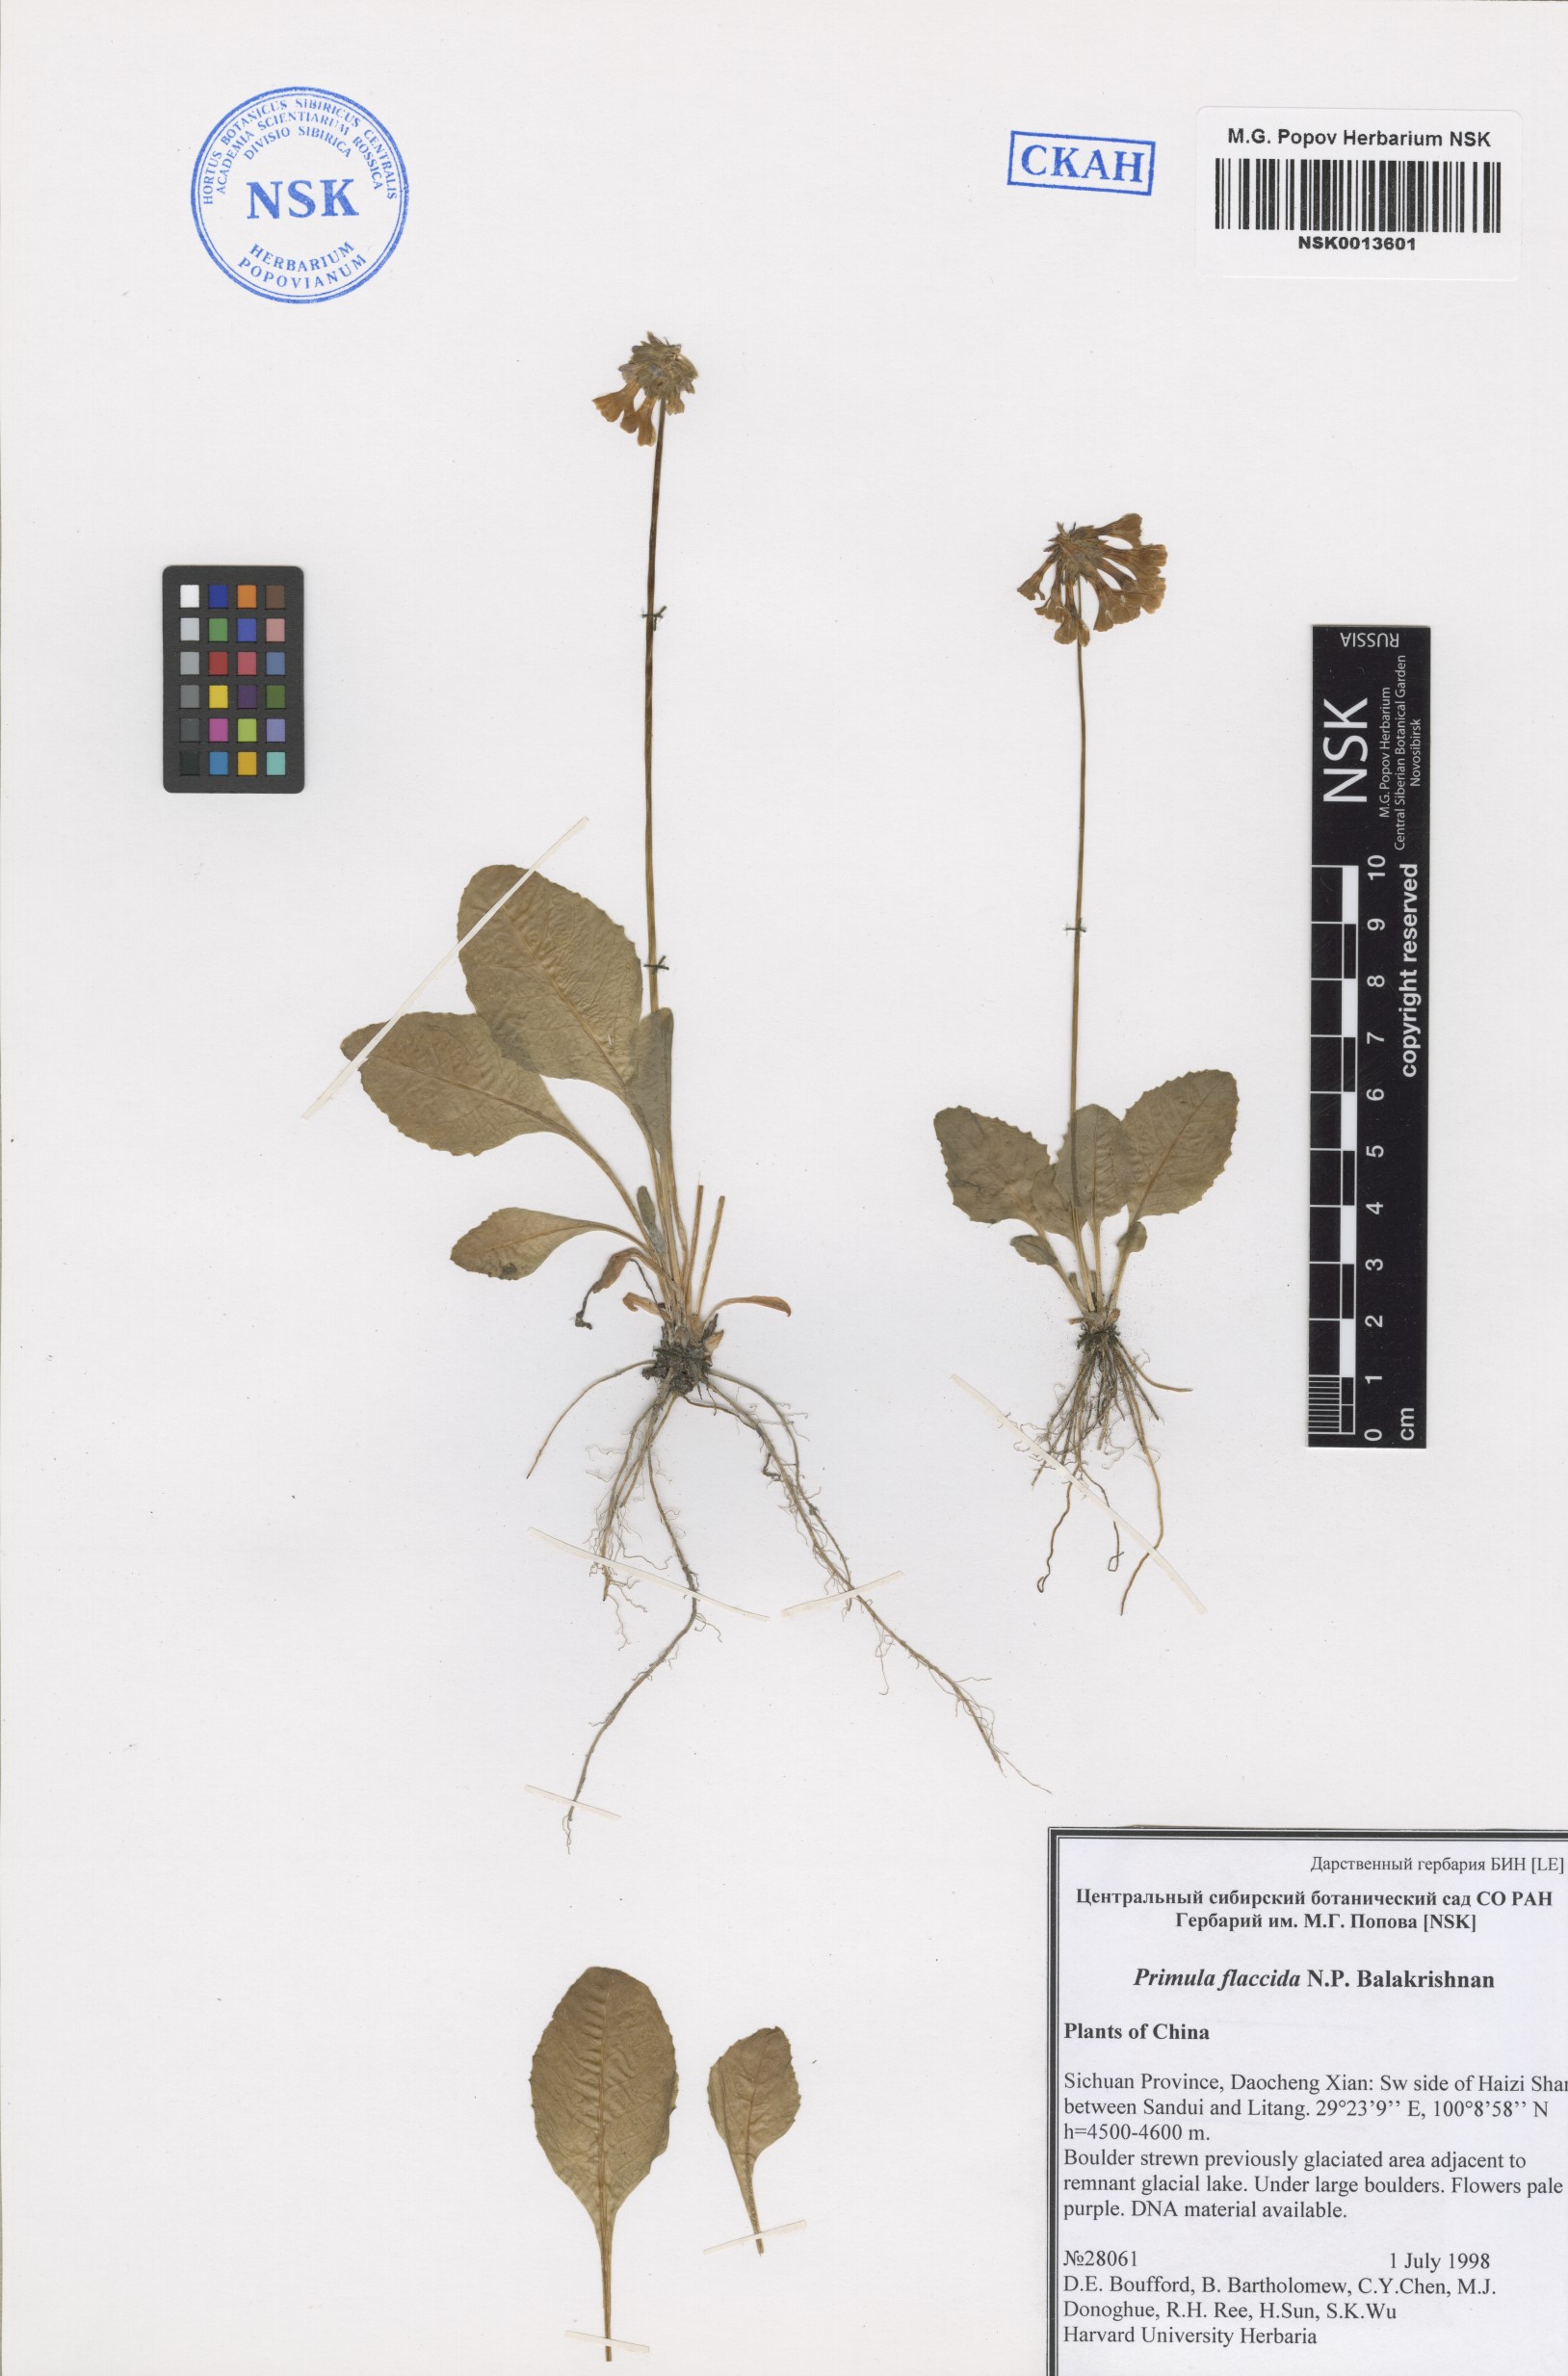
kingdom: Plantae
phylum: Tracheophyta
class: Magnoliopsida
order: Ericales
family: Primulaceae
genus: Primula
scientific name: Primula flaccida
